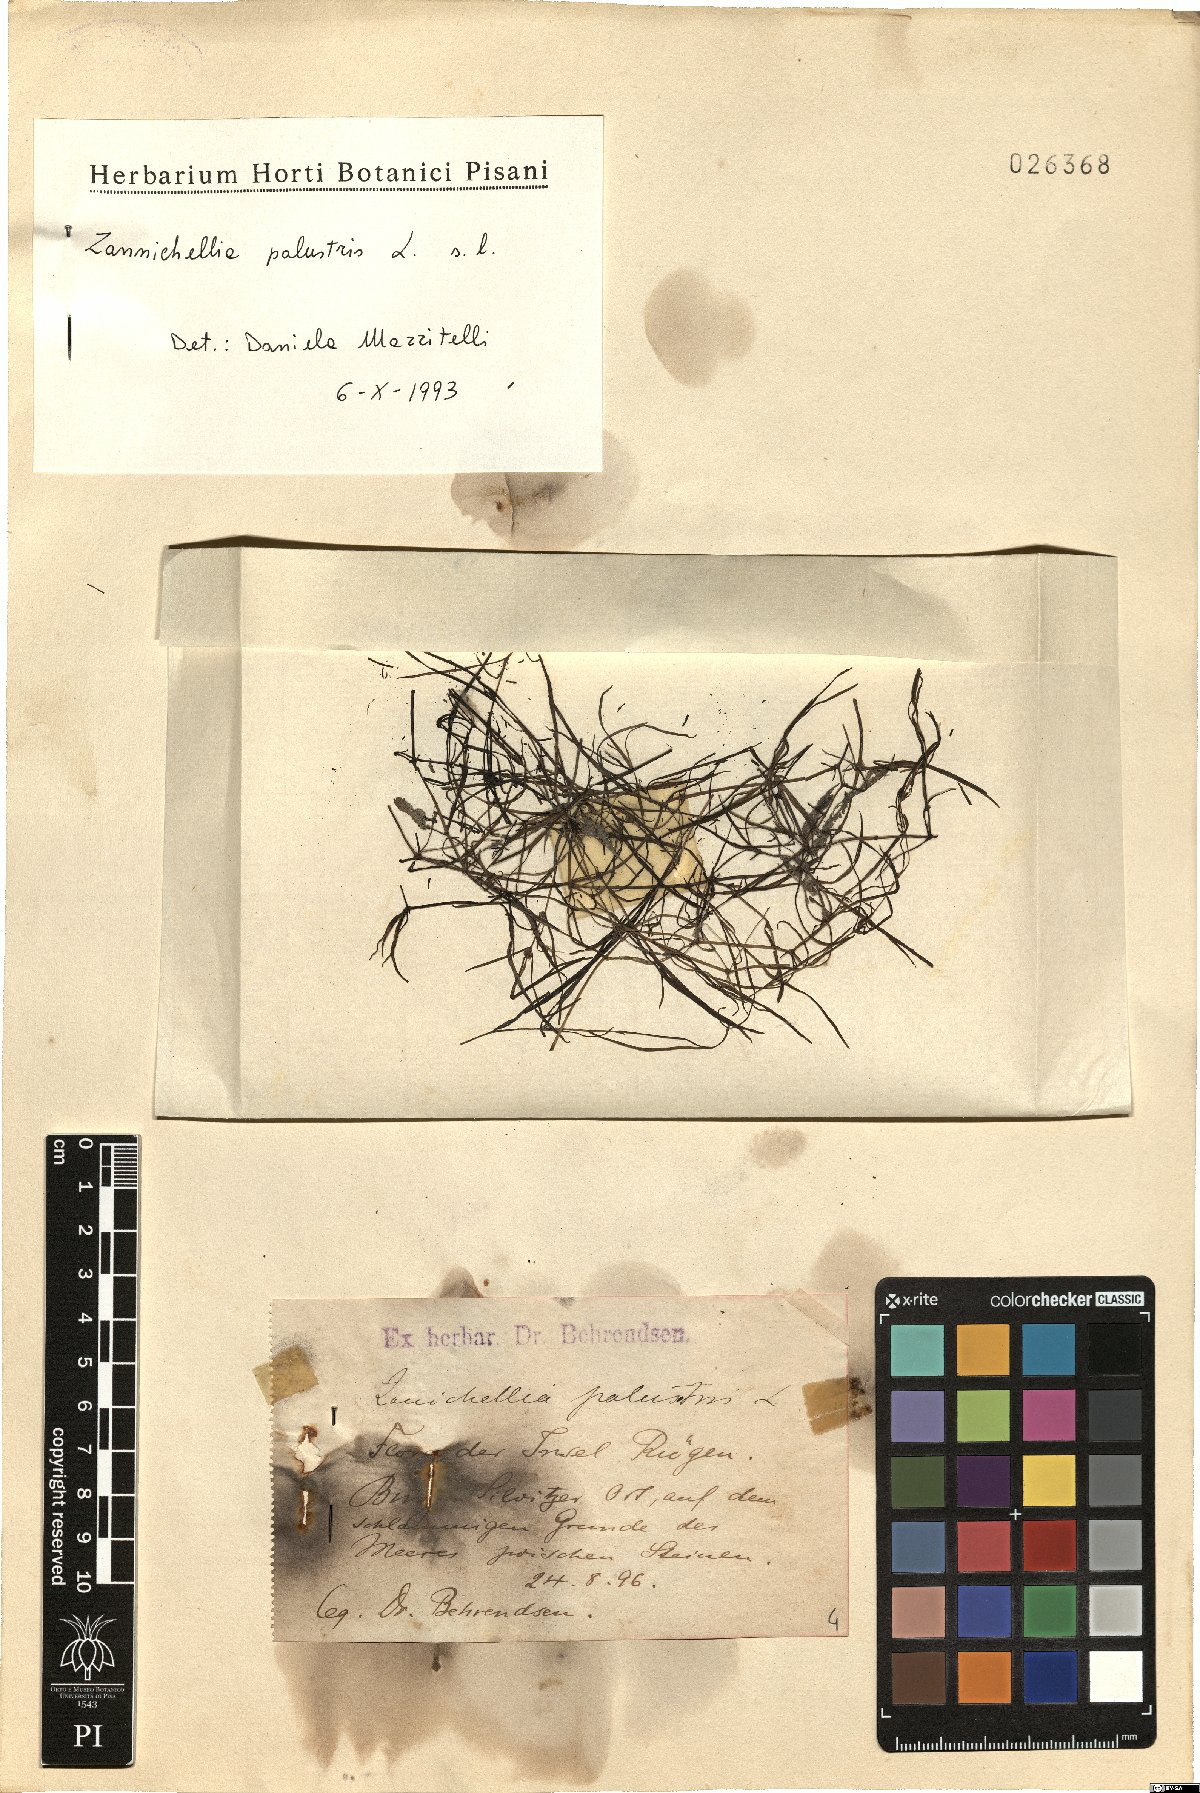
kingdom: Plantae
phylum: Tracheophyta
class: Liliopsida
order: Alismatales
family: Potamogetonaceae
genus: Zannichellia
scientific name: Zannichellia palustris
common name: Horned pondweed
